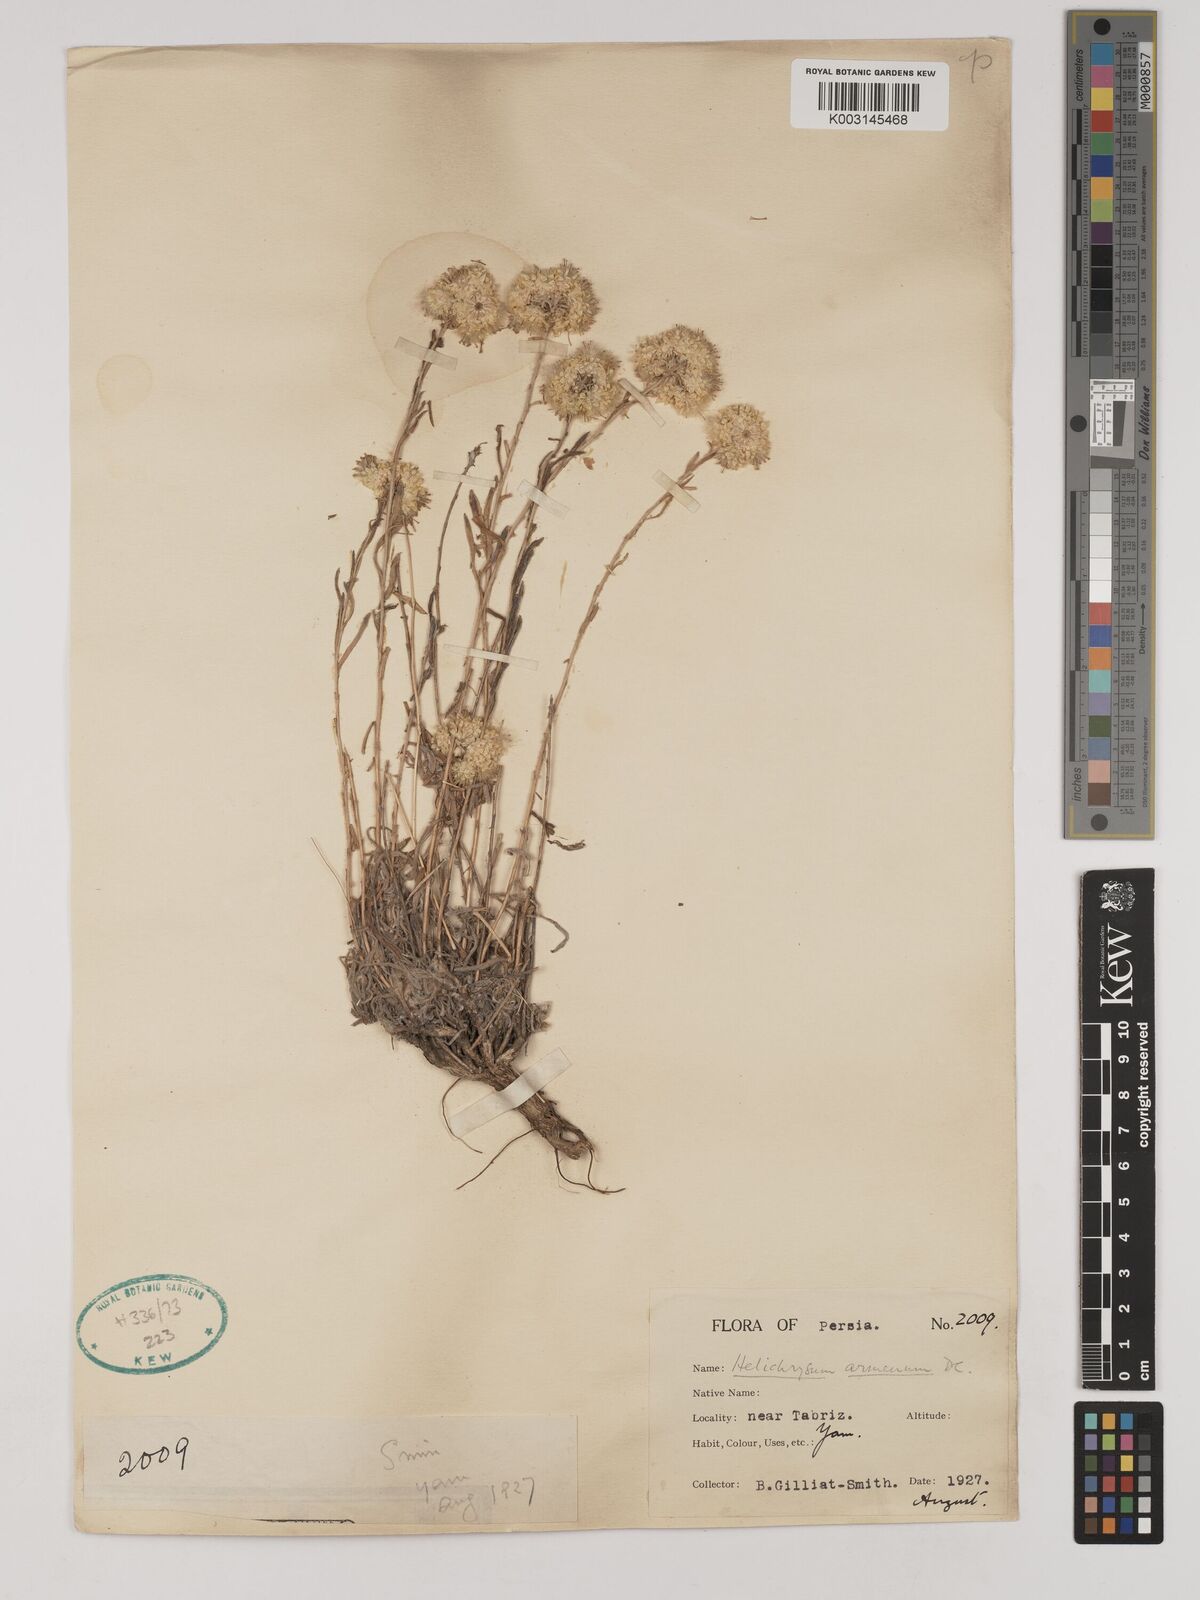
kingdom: Plantae
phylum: Tracheophyta
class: Magnoliopsida
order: Asterales
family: Asteraceae
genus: Helichrysum
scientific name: Helichrysum araxinum
